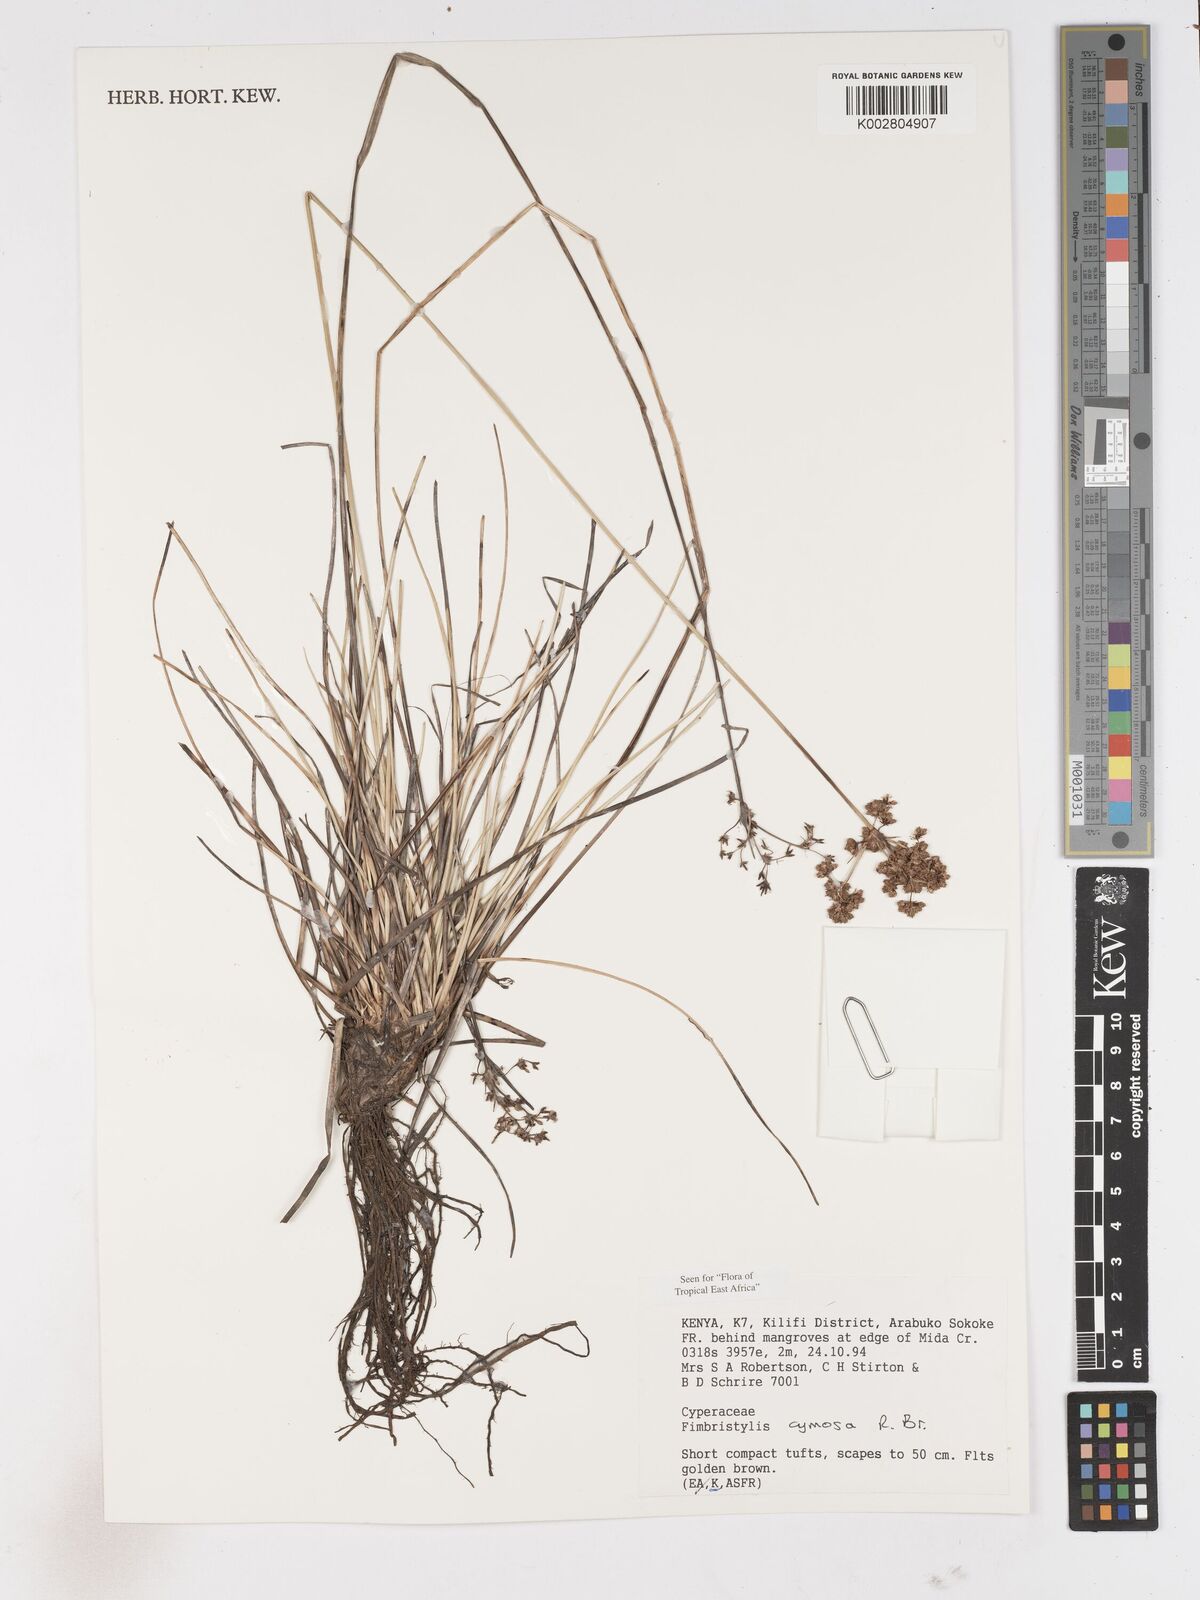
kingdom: Plantae
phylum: Tracheophyta
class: Liliopsida
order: Poales
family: Cyperaceae
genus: Fimbristylis
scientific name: Fimbristylis cymosa
